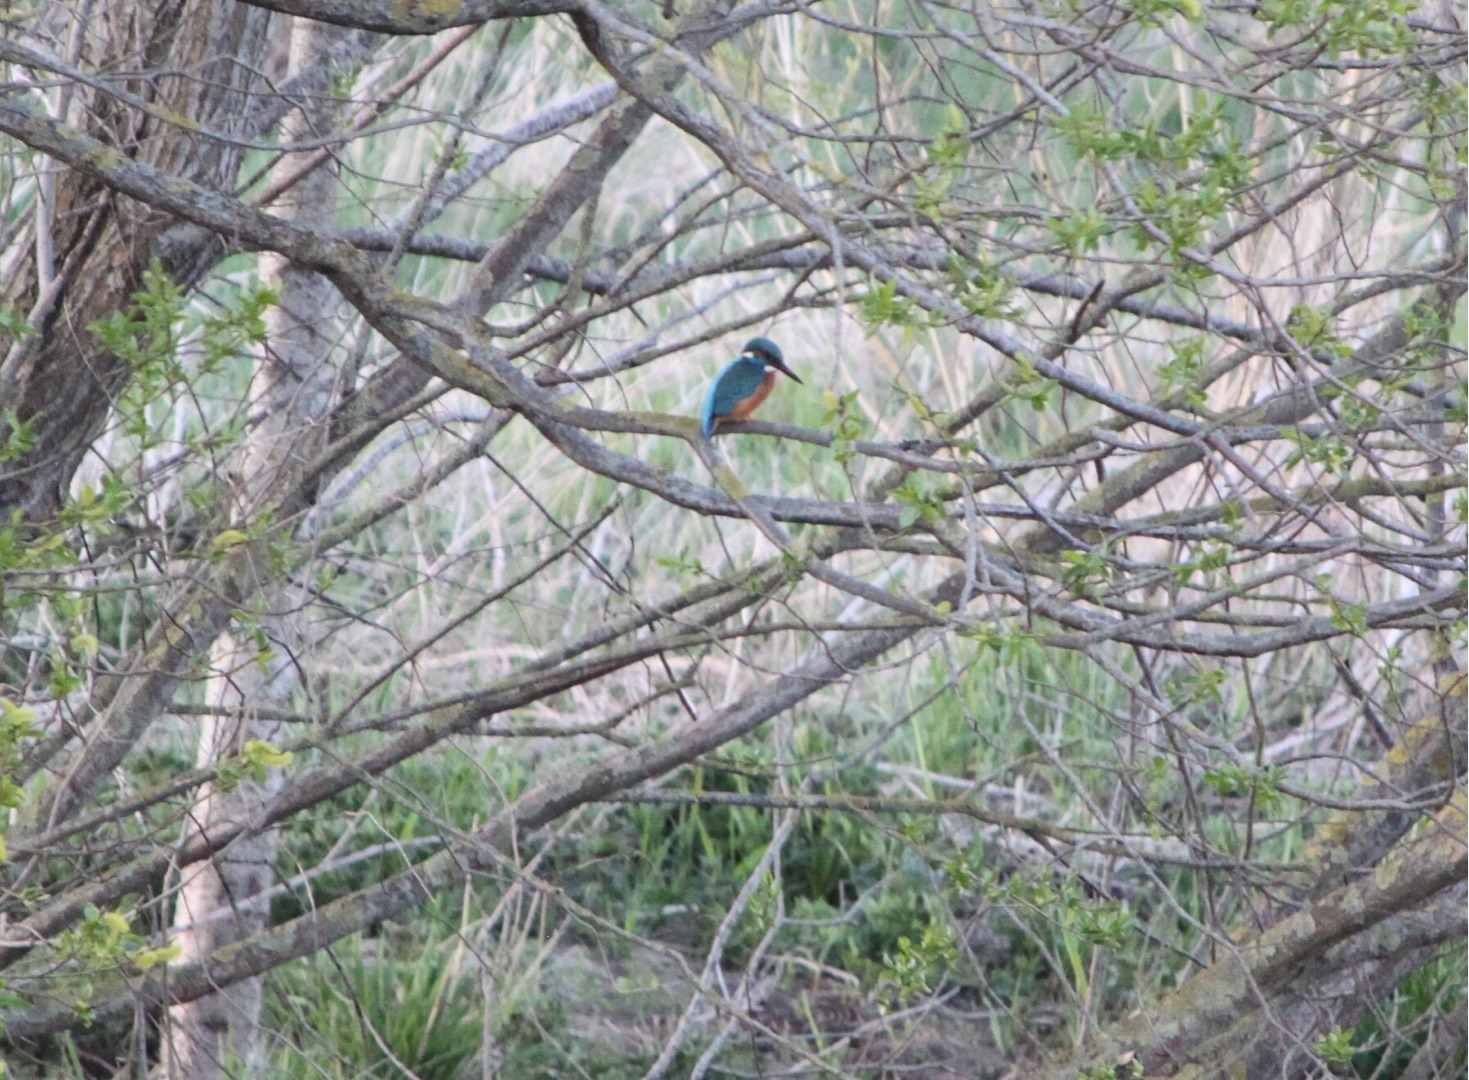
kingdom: Animalia
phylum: Chordata
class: Aves
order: Coraciiformes
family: Alcedinidae
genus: Alcedo
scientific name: Alcedo atthis
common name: Isfugl
